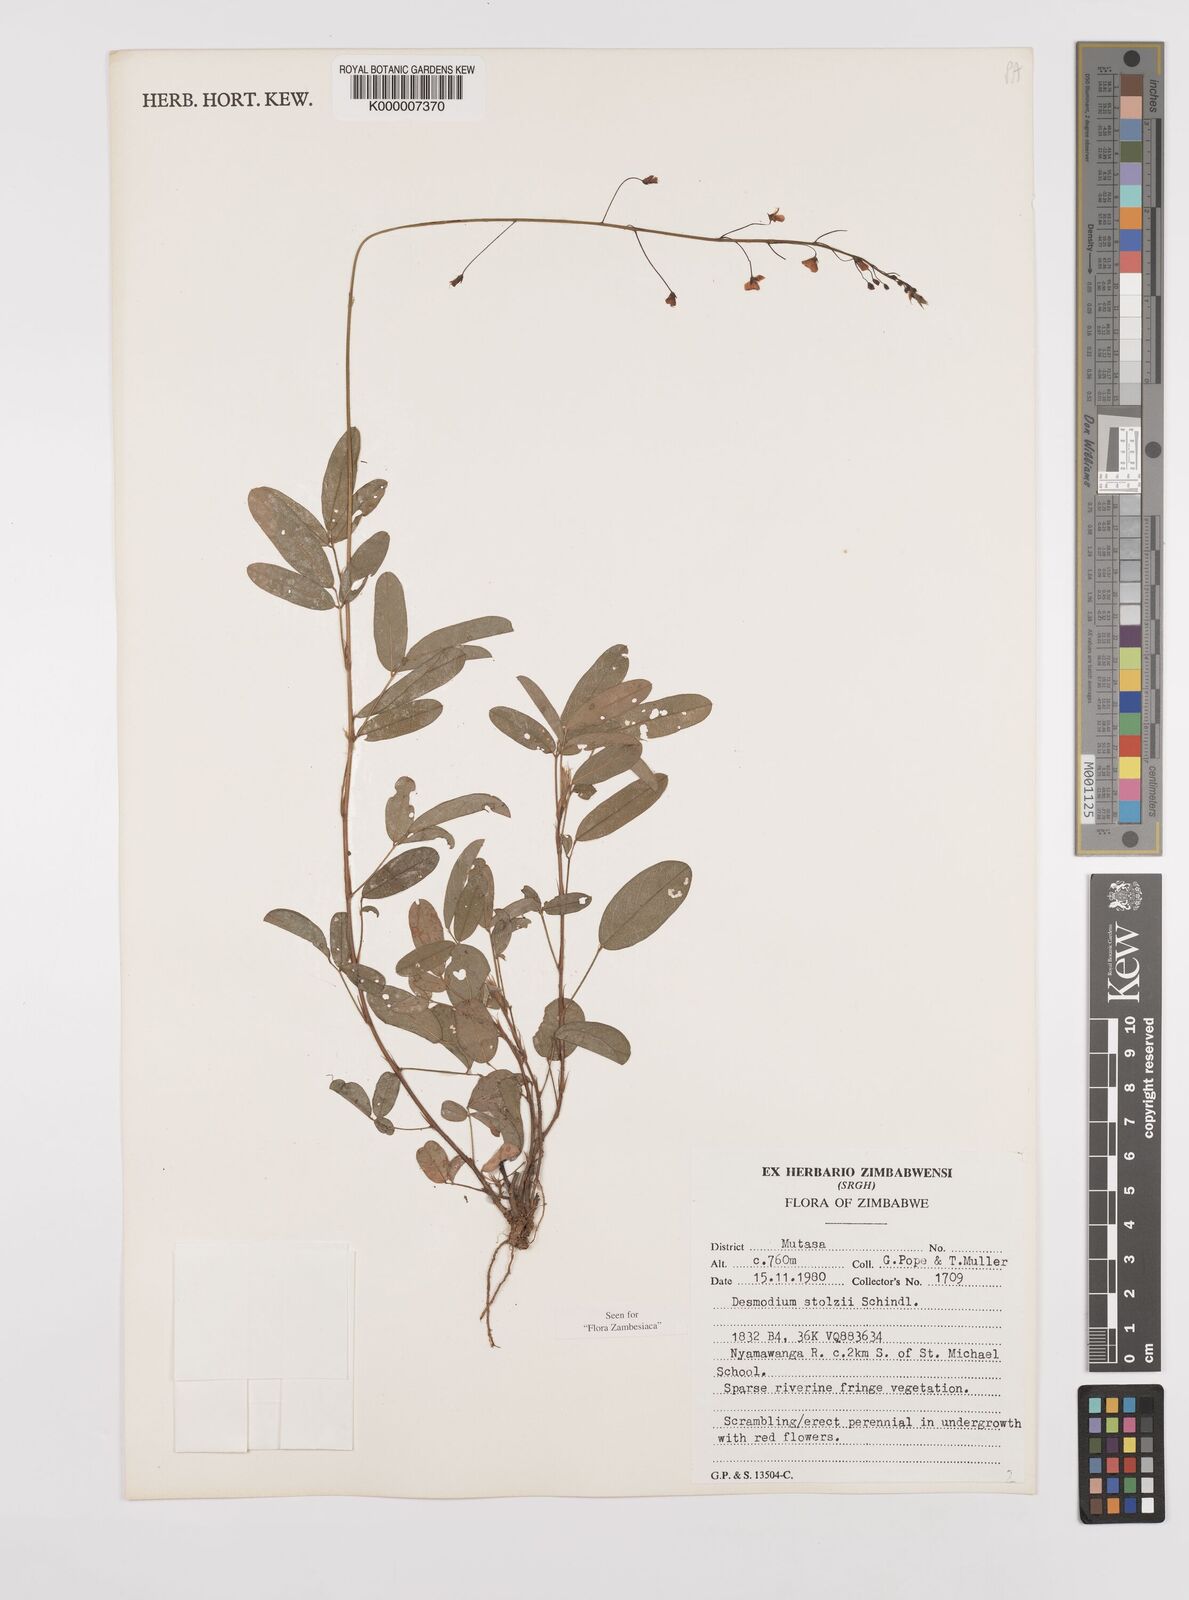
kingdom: Plantae
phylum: Tracheophyta
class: Magnoliopsida
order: Fabales
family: Fabaceae
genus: Grona
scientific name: Grona stolzii
